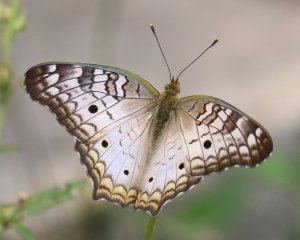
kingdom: Animalia
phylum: Arthropoda
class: Insecta
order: Lepidoptera
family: Nymphalidae
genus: Anartia
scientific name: Anartia jatrophae
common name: White Peacock
